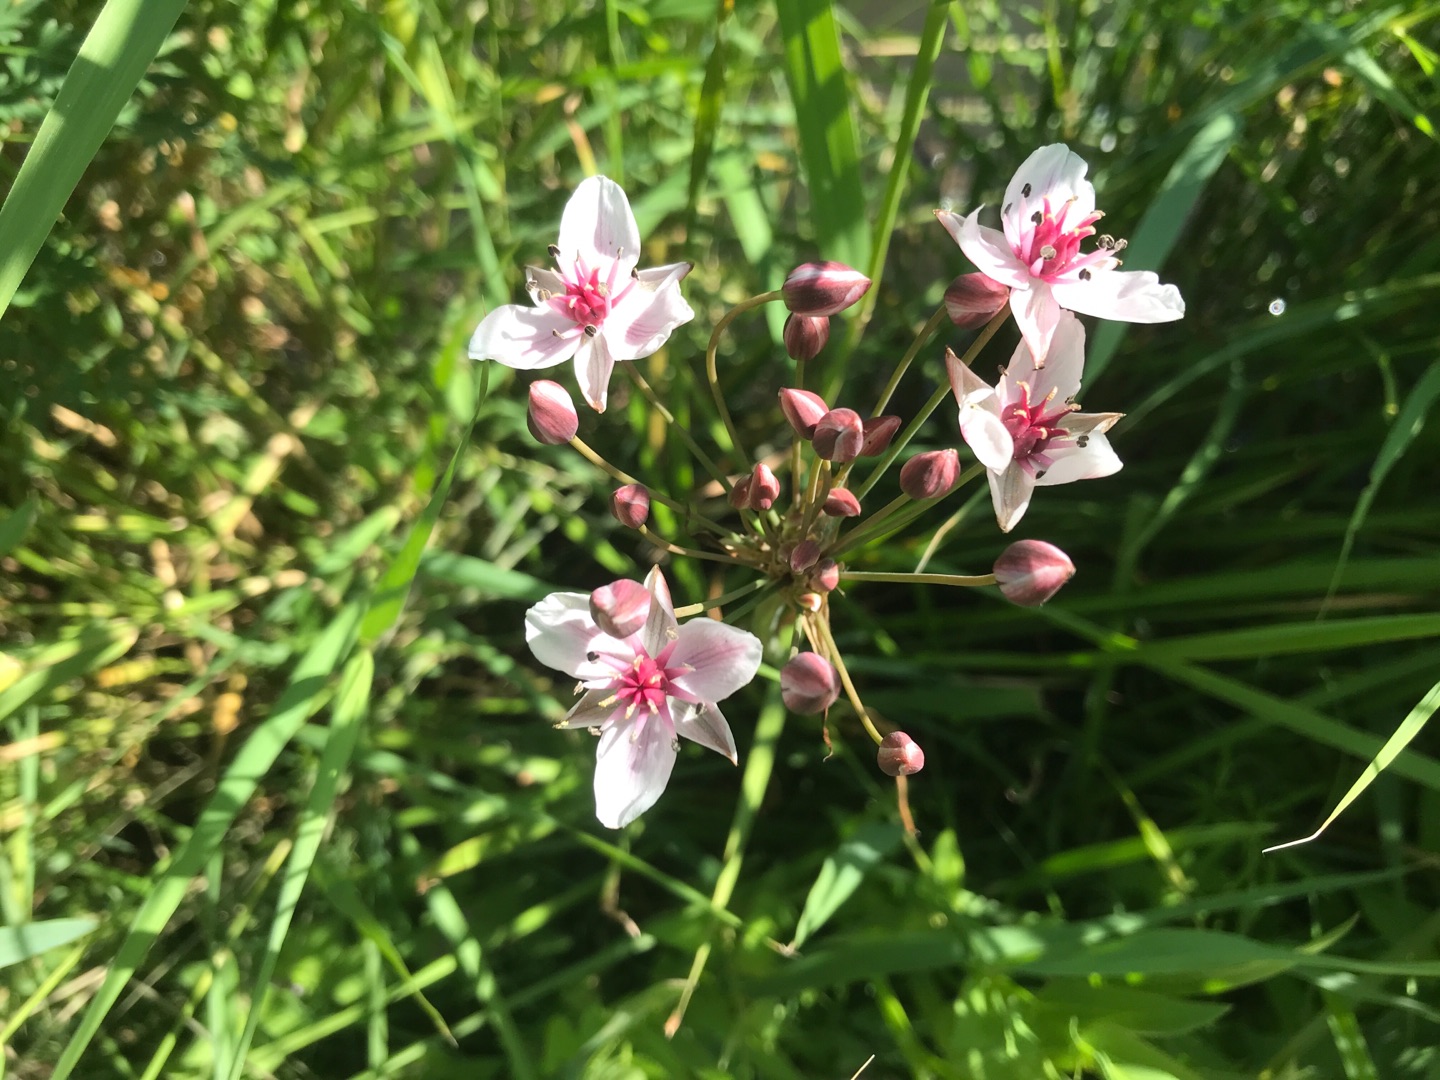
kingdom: Plantae
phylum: Tracheophyta
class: Liliopsida
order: Alismatales
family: Butomaceae
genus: Butomus
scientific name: Butomus umbellatus
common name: Brudelys
